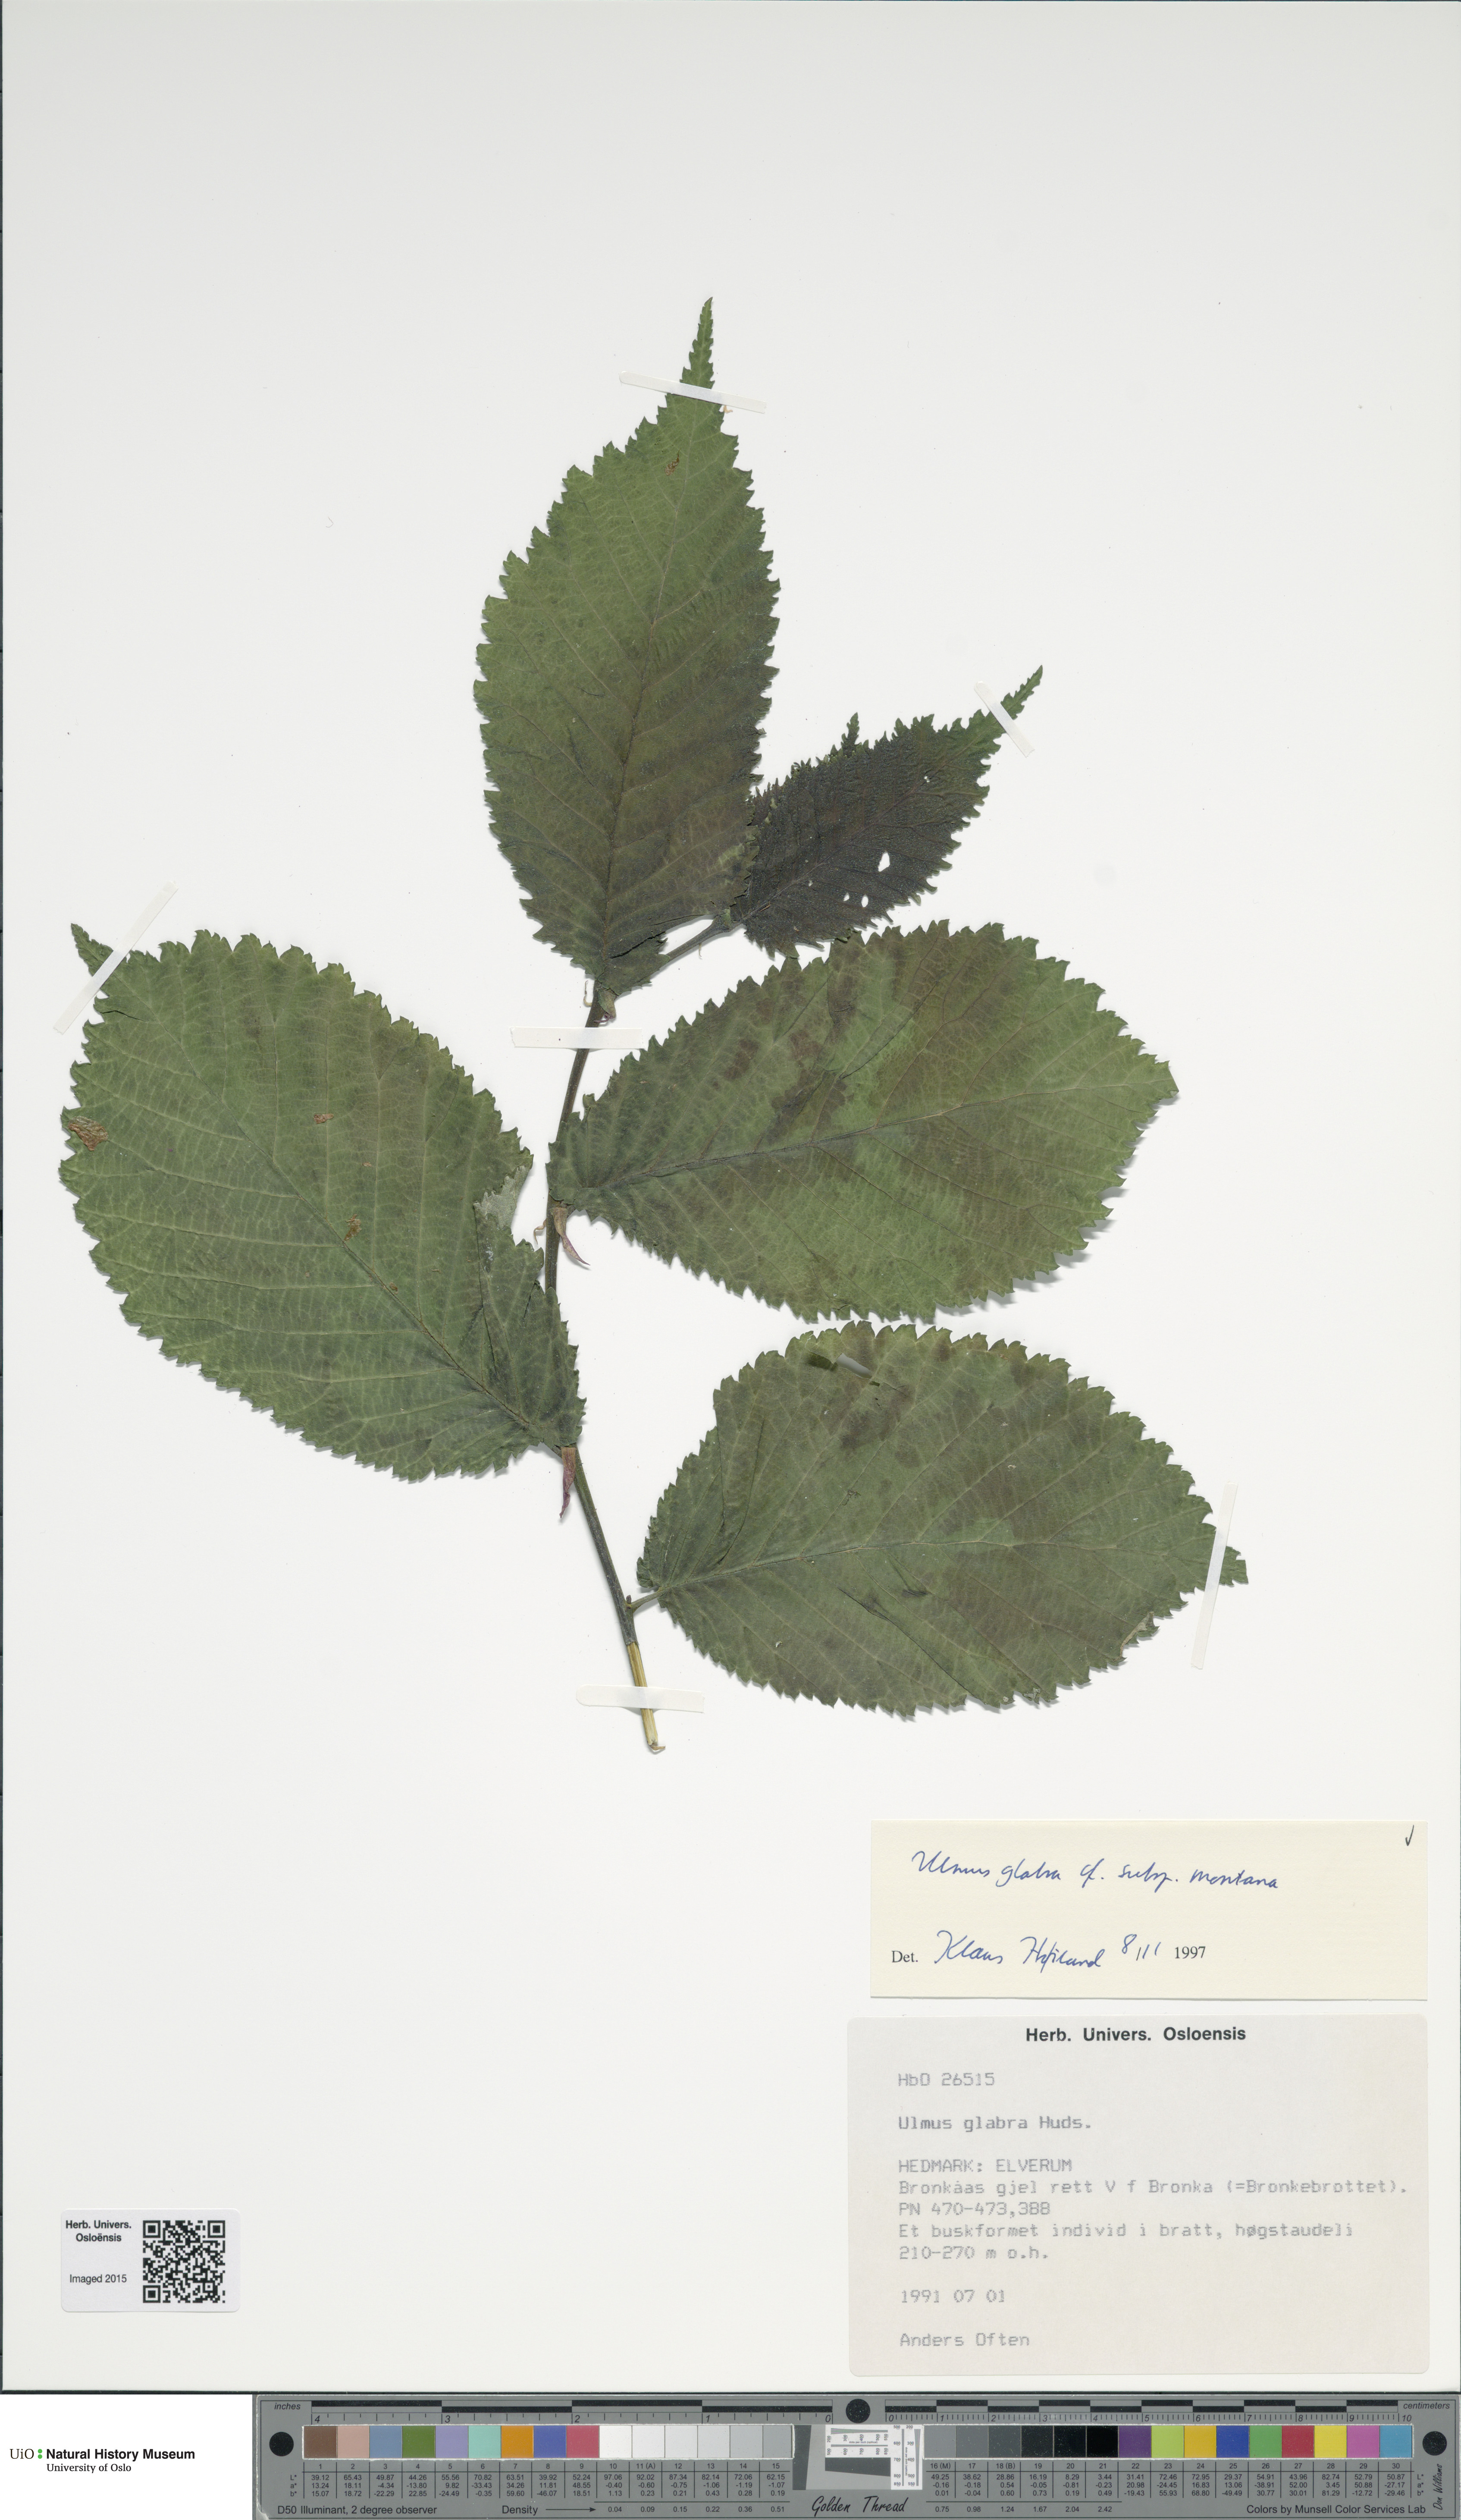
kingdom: Plantae
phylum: Tracheophyta
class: Magnoliopsida
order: Rosales
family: Ulmaceae
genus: Ulmus
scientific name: Ulmus glabra
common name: Wych elm
